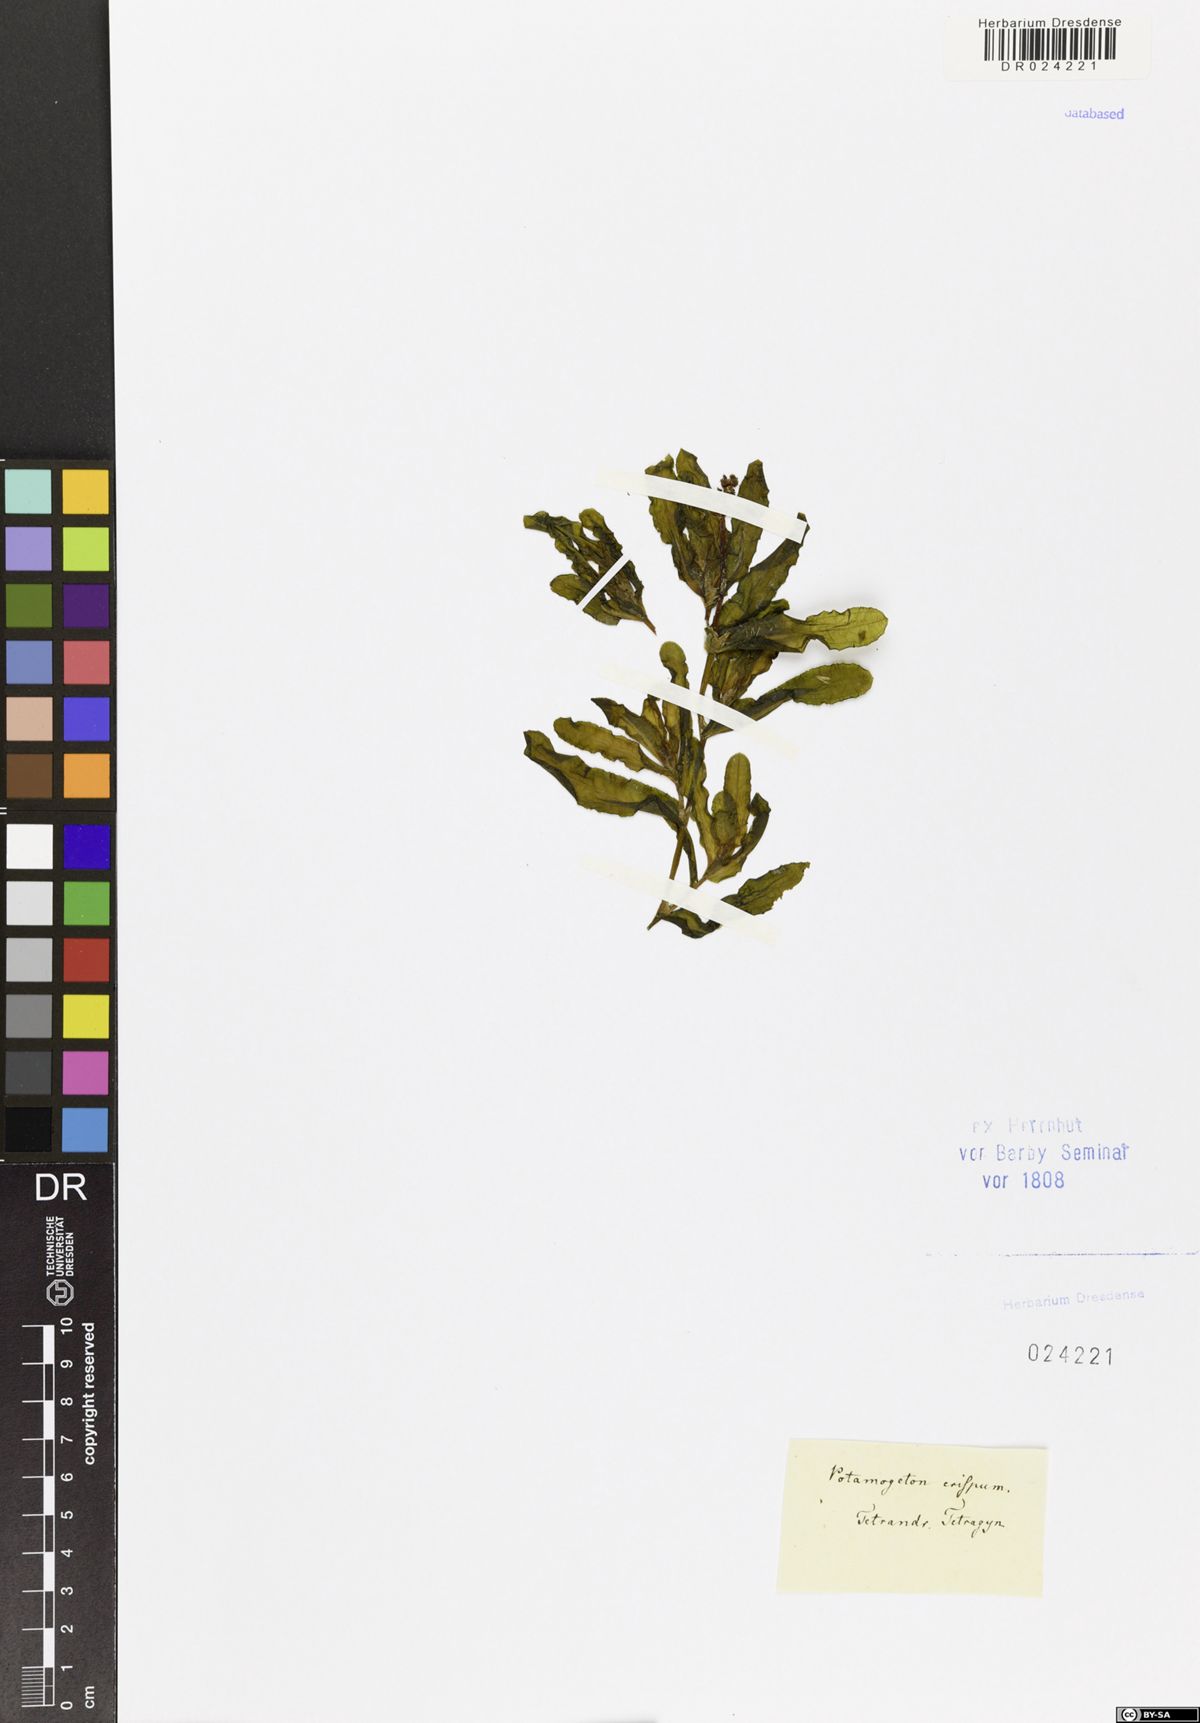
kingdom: Plantae
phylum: Tracheophyta
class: Liliopsida
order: Alismatales
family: Potamogetonaceae
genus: Potamogeton
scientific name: Potamogeton crispus
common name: Curled pondweed
